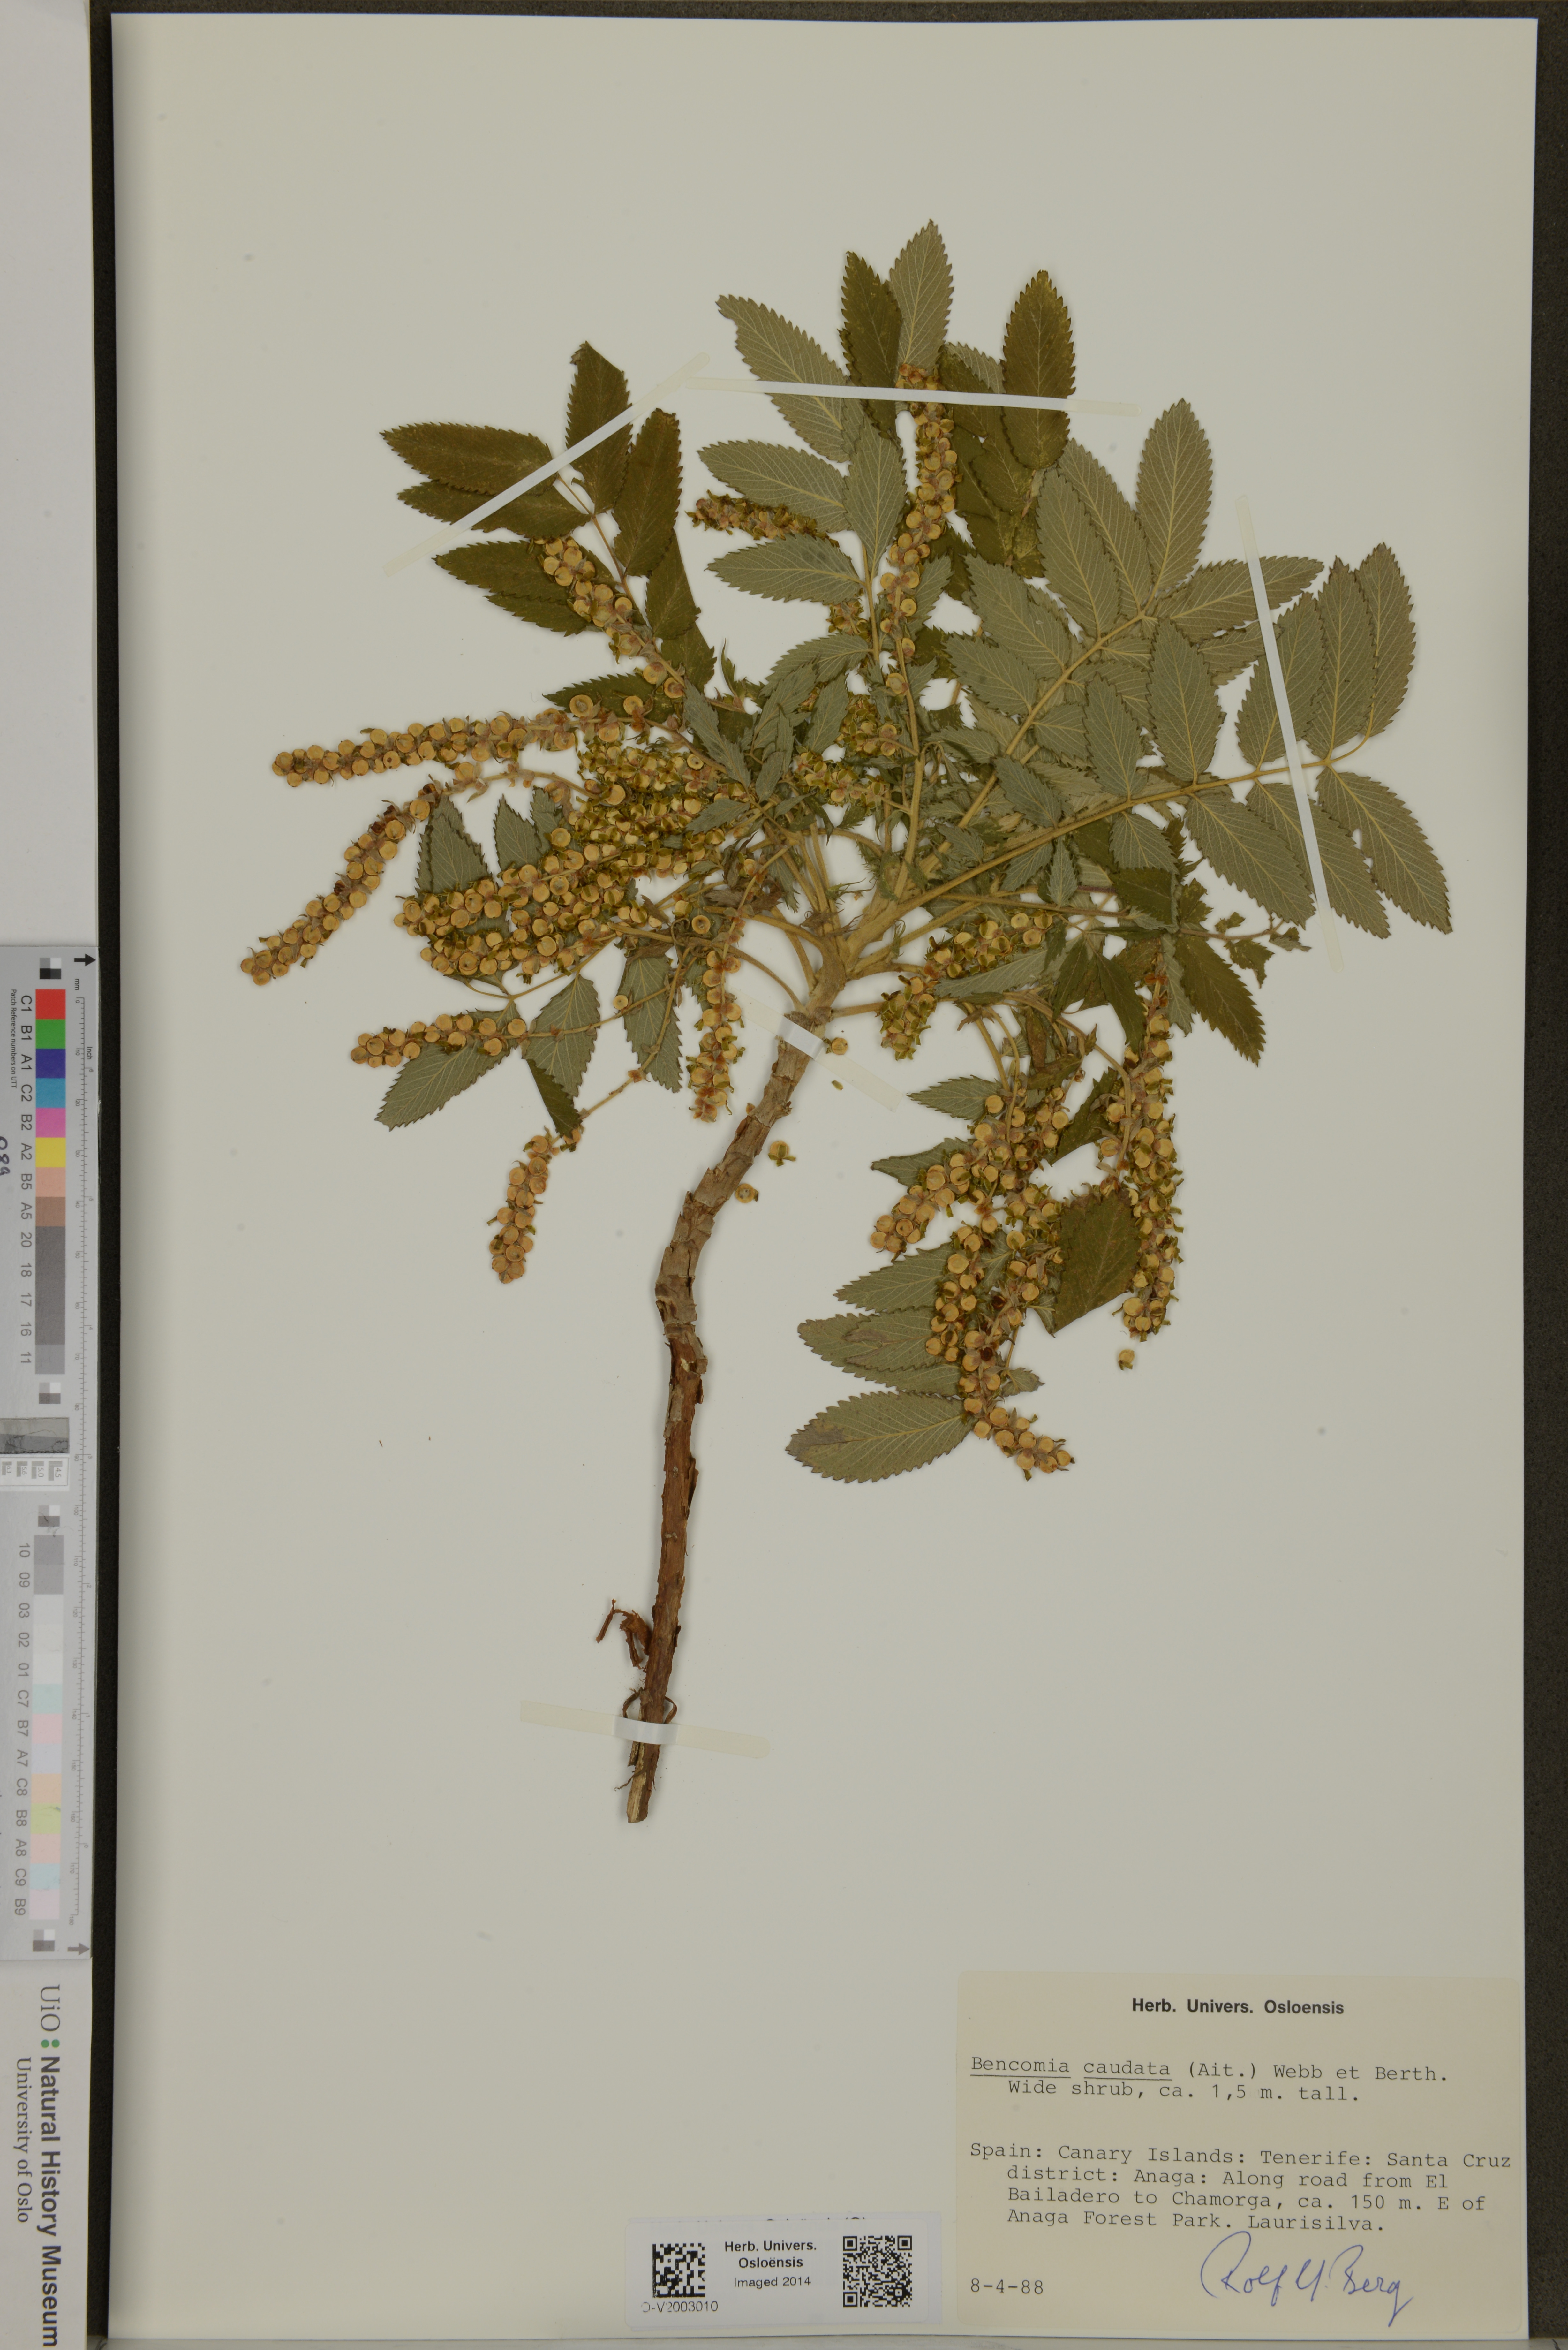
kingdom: Plantae
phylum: Tracheophyta
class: Magnoliopsida
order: Rosales
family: Rosaceae
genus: Bencomia
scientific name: Bencomia caudata
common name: Bencomia
